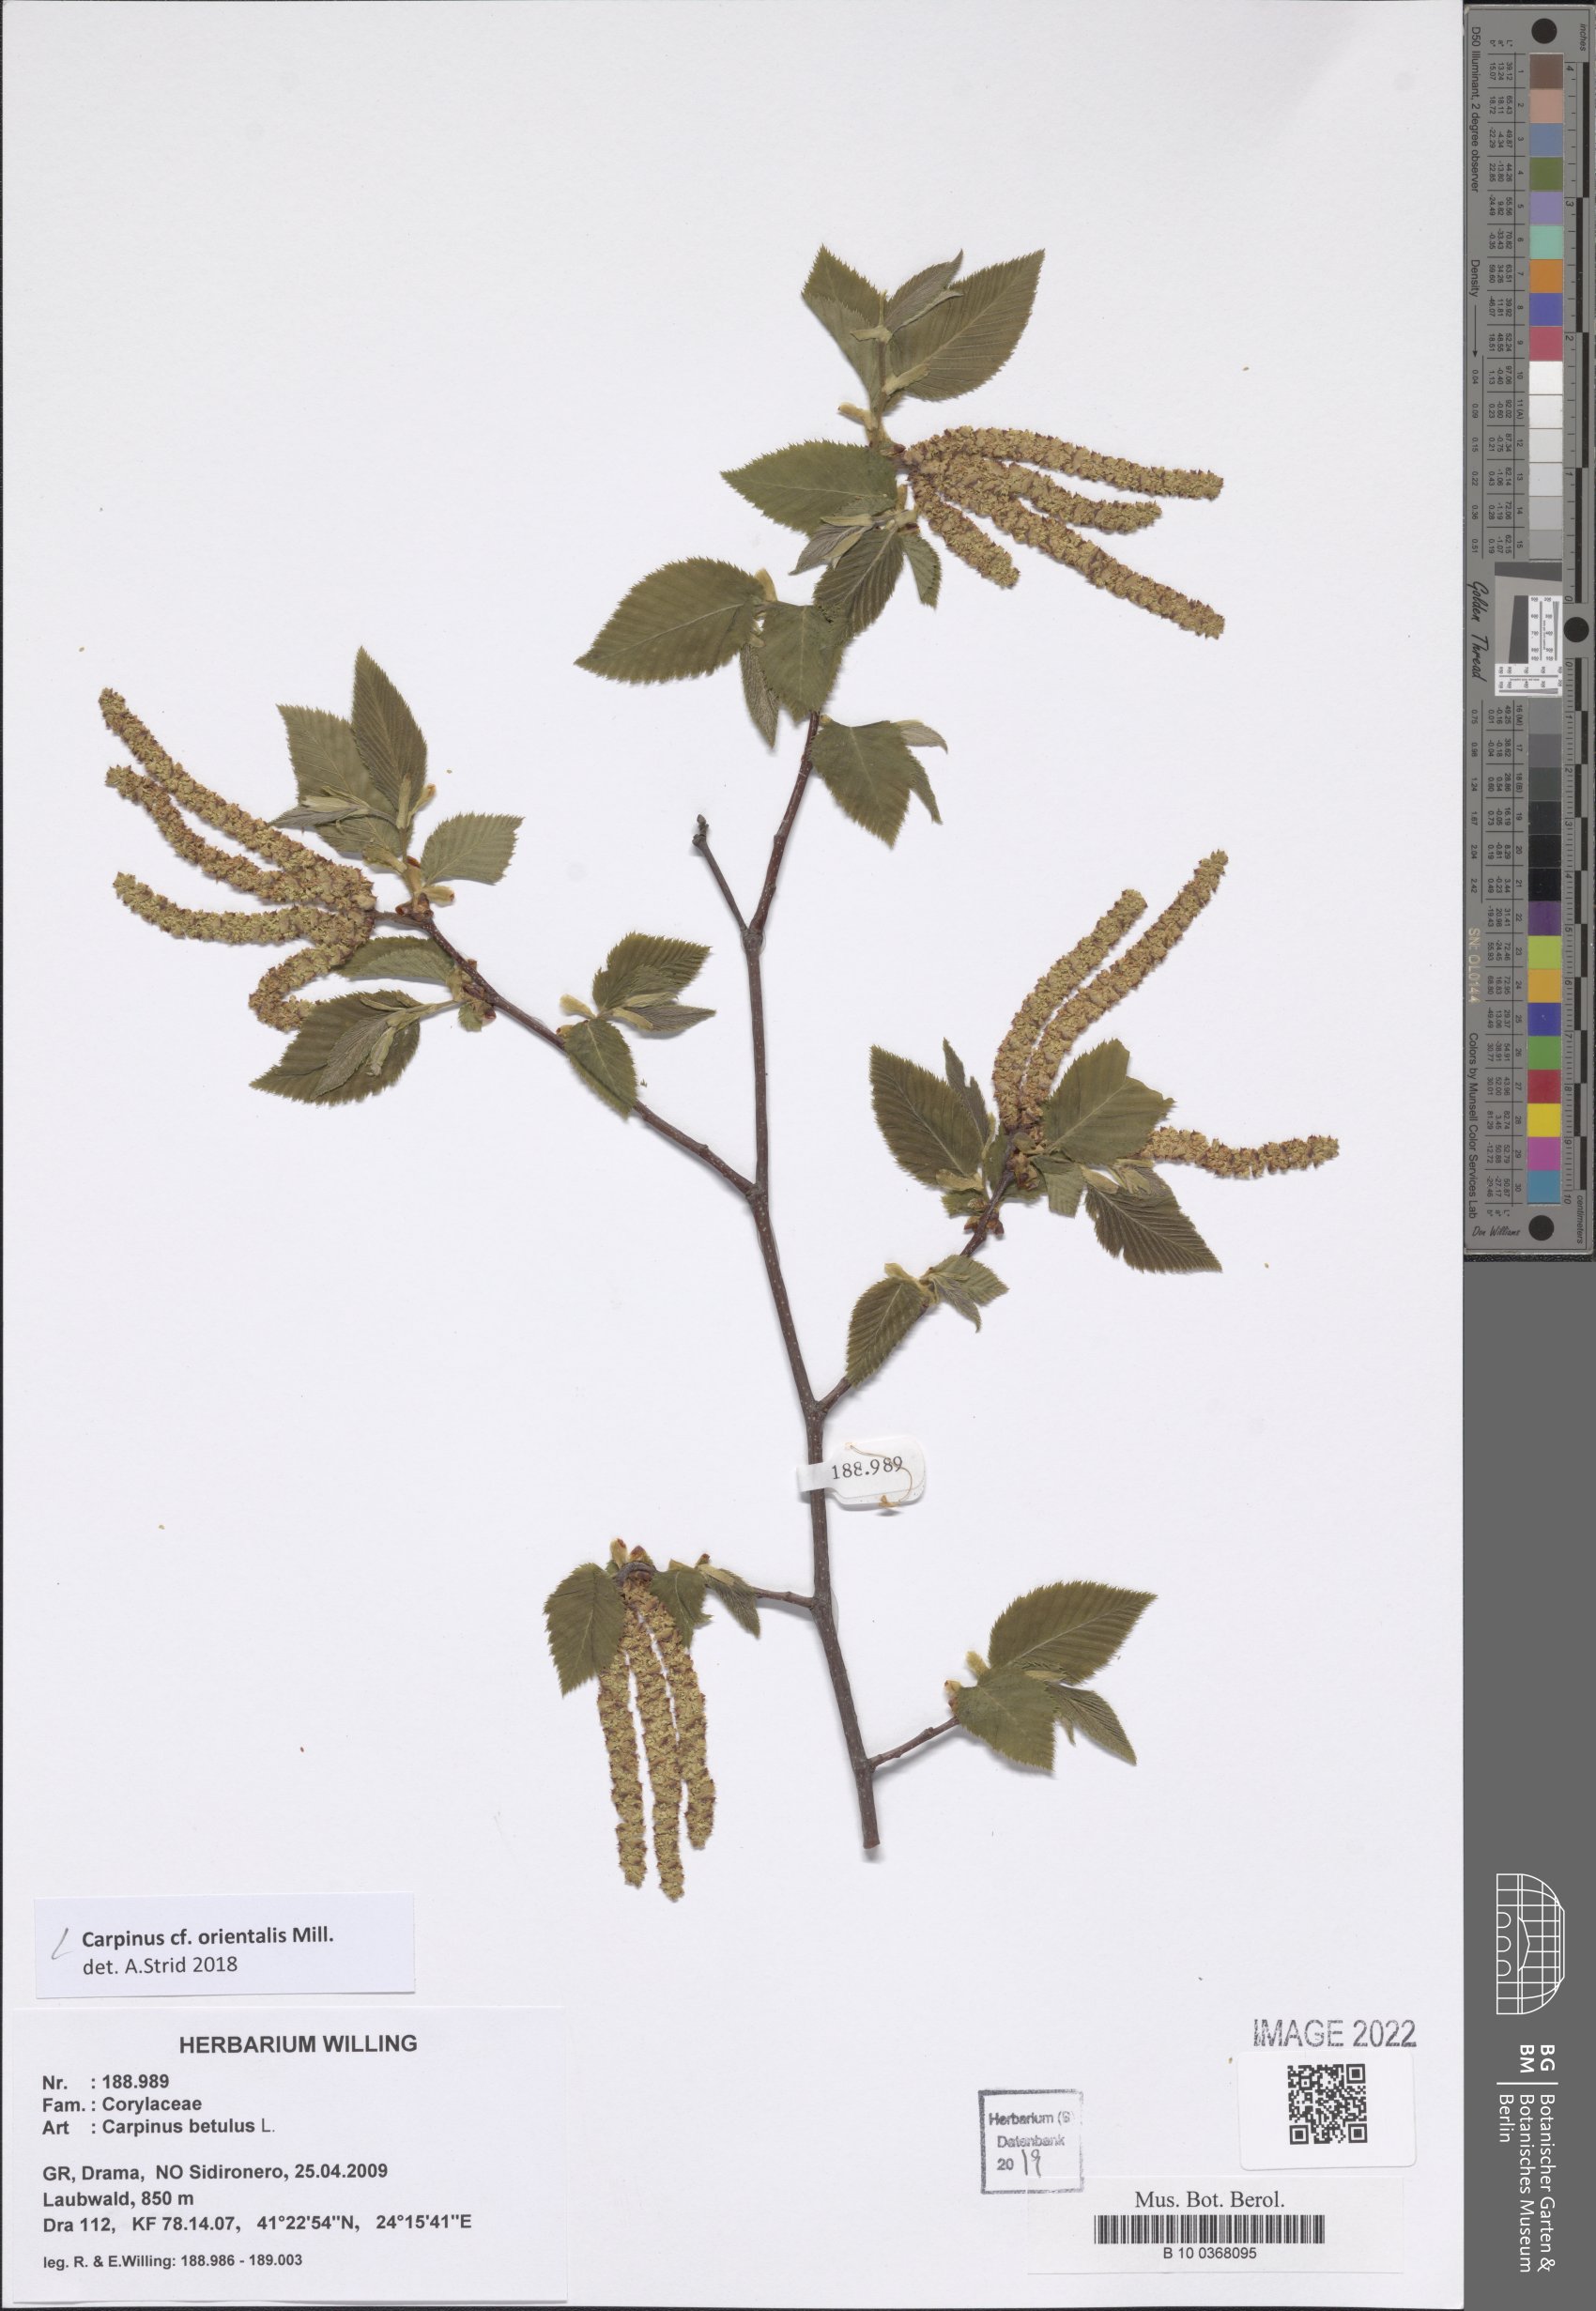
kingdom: Plantae
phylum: Tracheophyta
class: Magnoliopsida
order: Fagales
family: Betulaceae
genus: Carpinus
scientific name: Carpinus orientalis
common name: Eastern hornbeam
